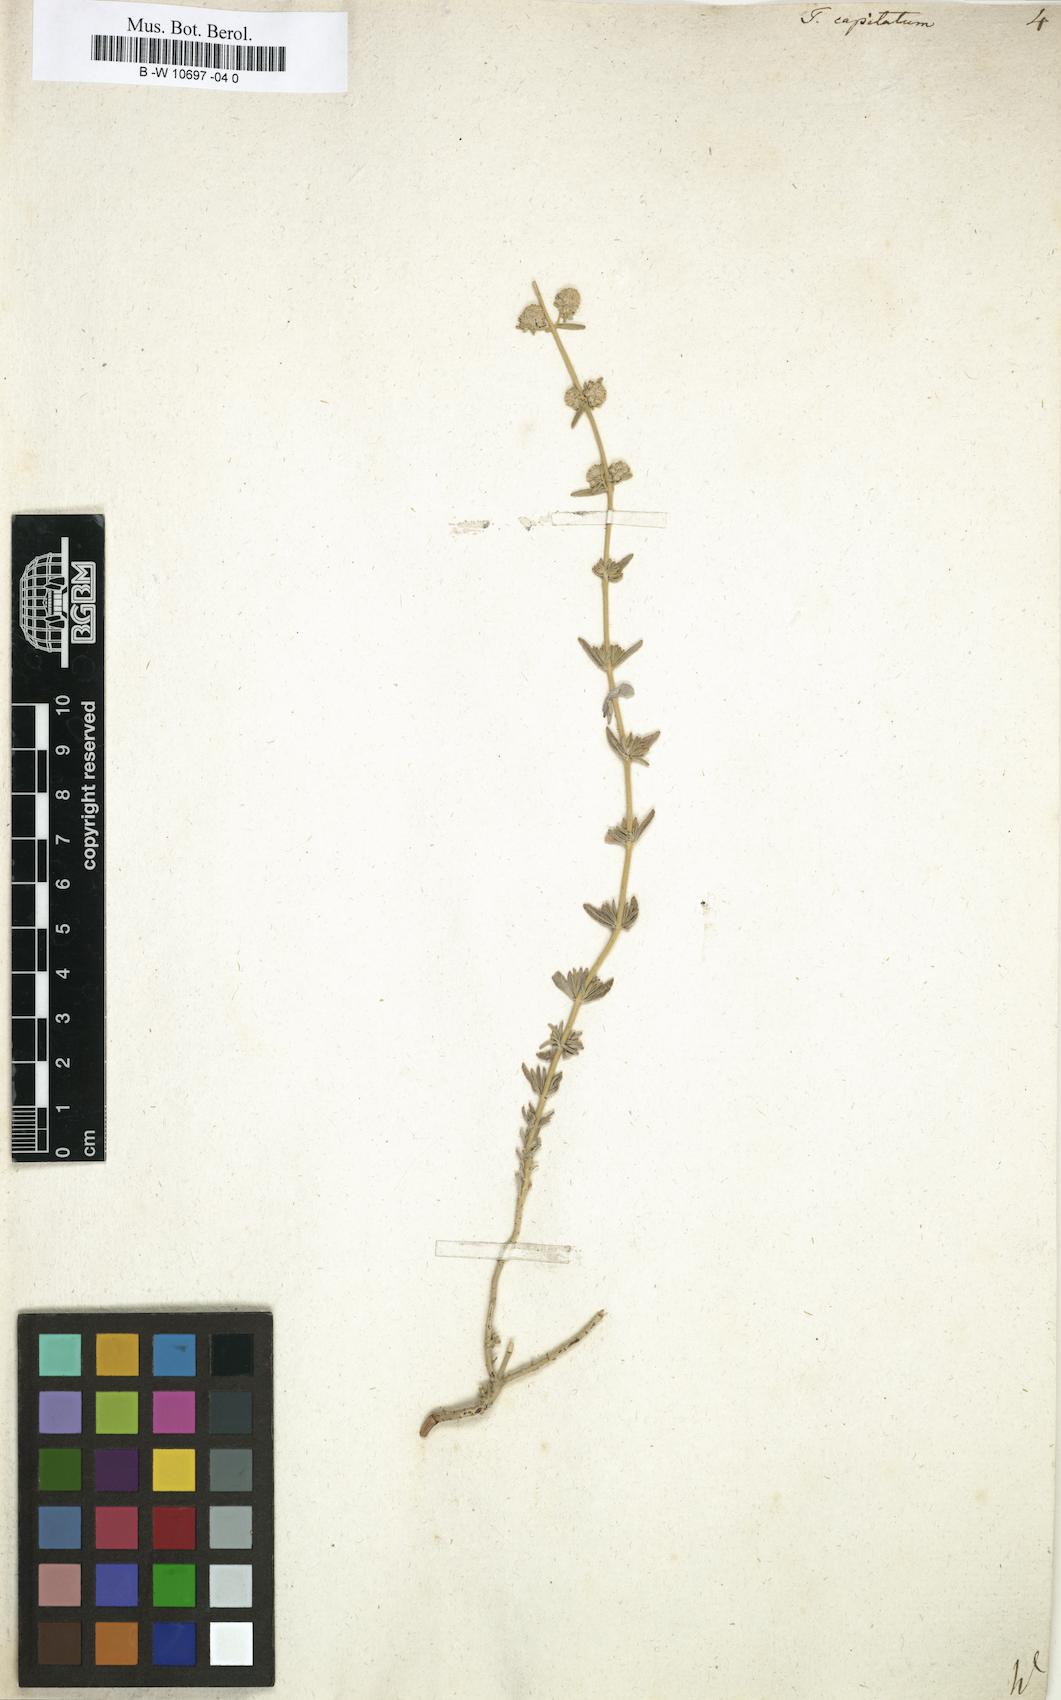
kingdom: Plantae
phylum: Tracheophyta
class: Magnoliopsida
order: Lamiales
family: Lamiaceae
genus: Teucrium
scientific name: Teucrium capitatum
